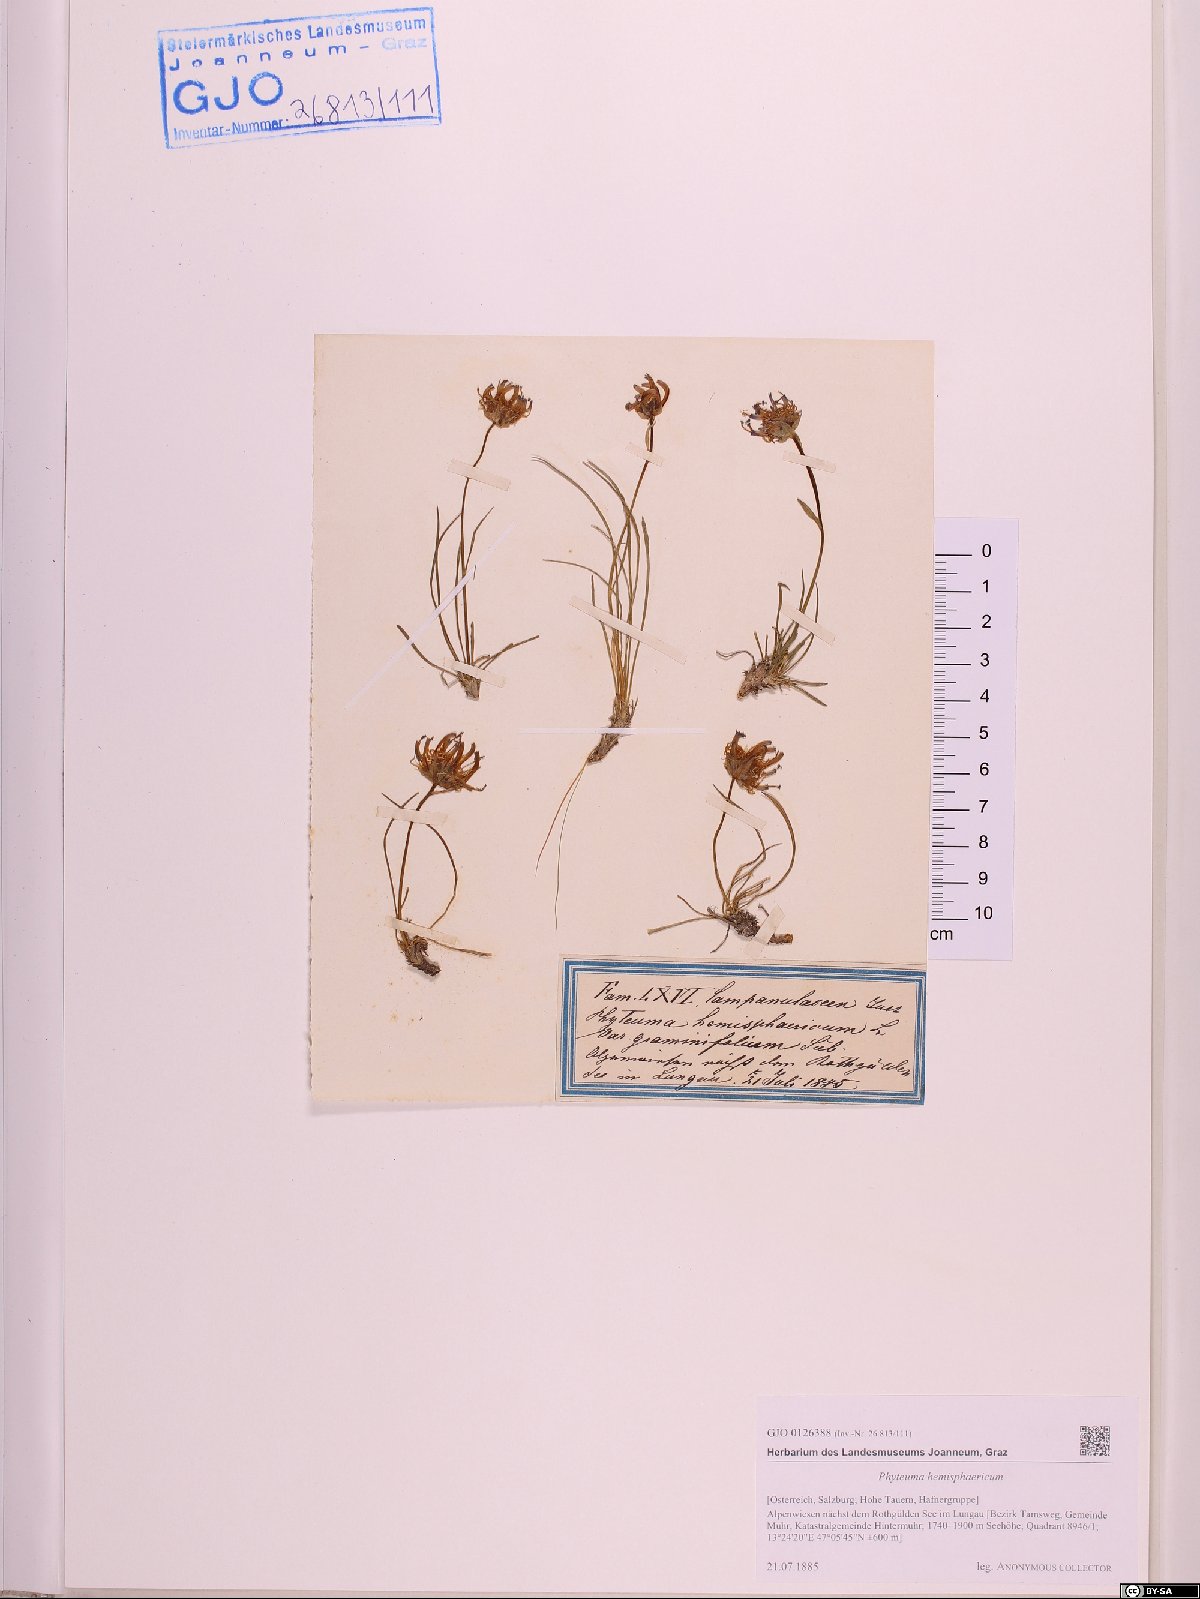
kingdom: Plantae
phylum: Tracheophyta
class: Magnoliopsida
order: Asterales
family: Campanulaceae
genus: Phyteuma
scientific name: Phyteuma hemisphaericum
